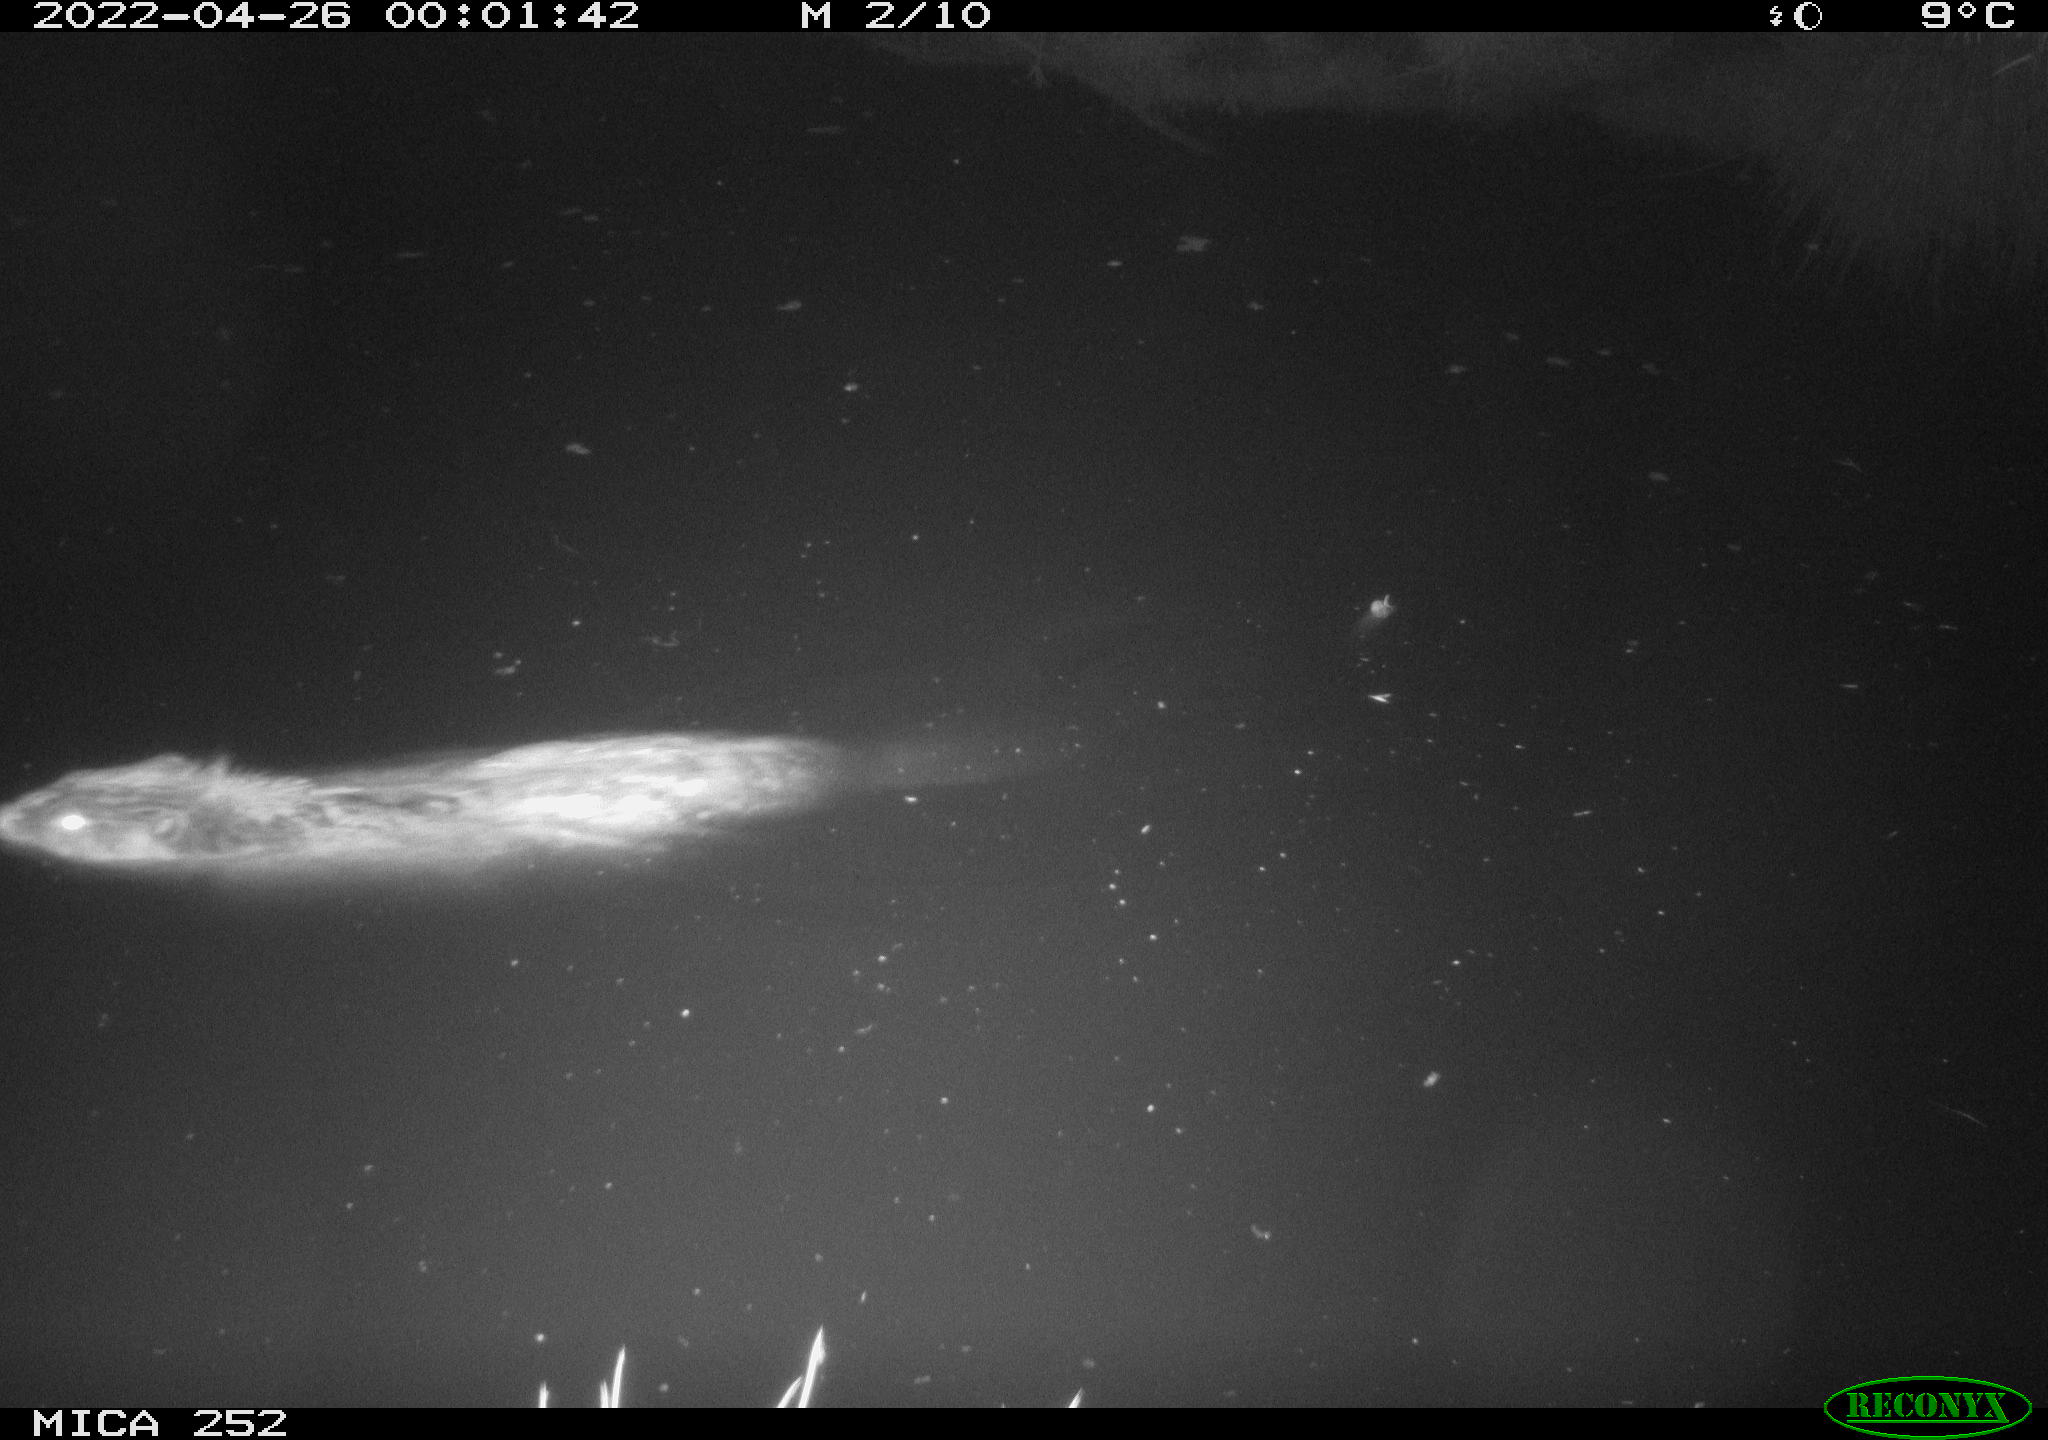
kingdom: Animalia
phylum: Chordata
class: Mammalia
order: Rodentia
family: Castoridae
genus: Castor
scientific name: Castor fiber
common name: Eurasian beaver
